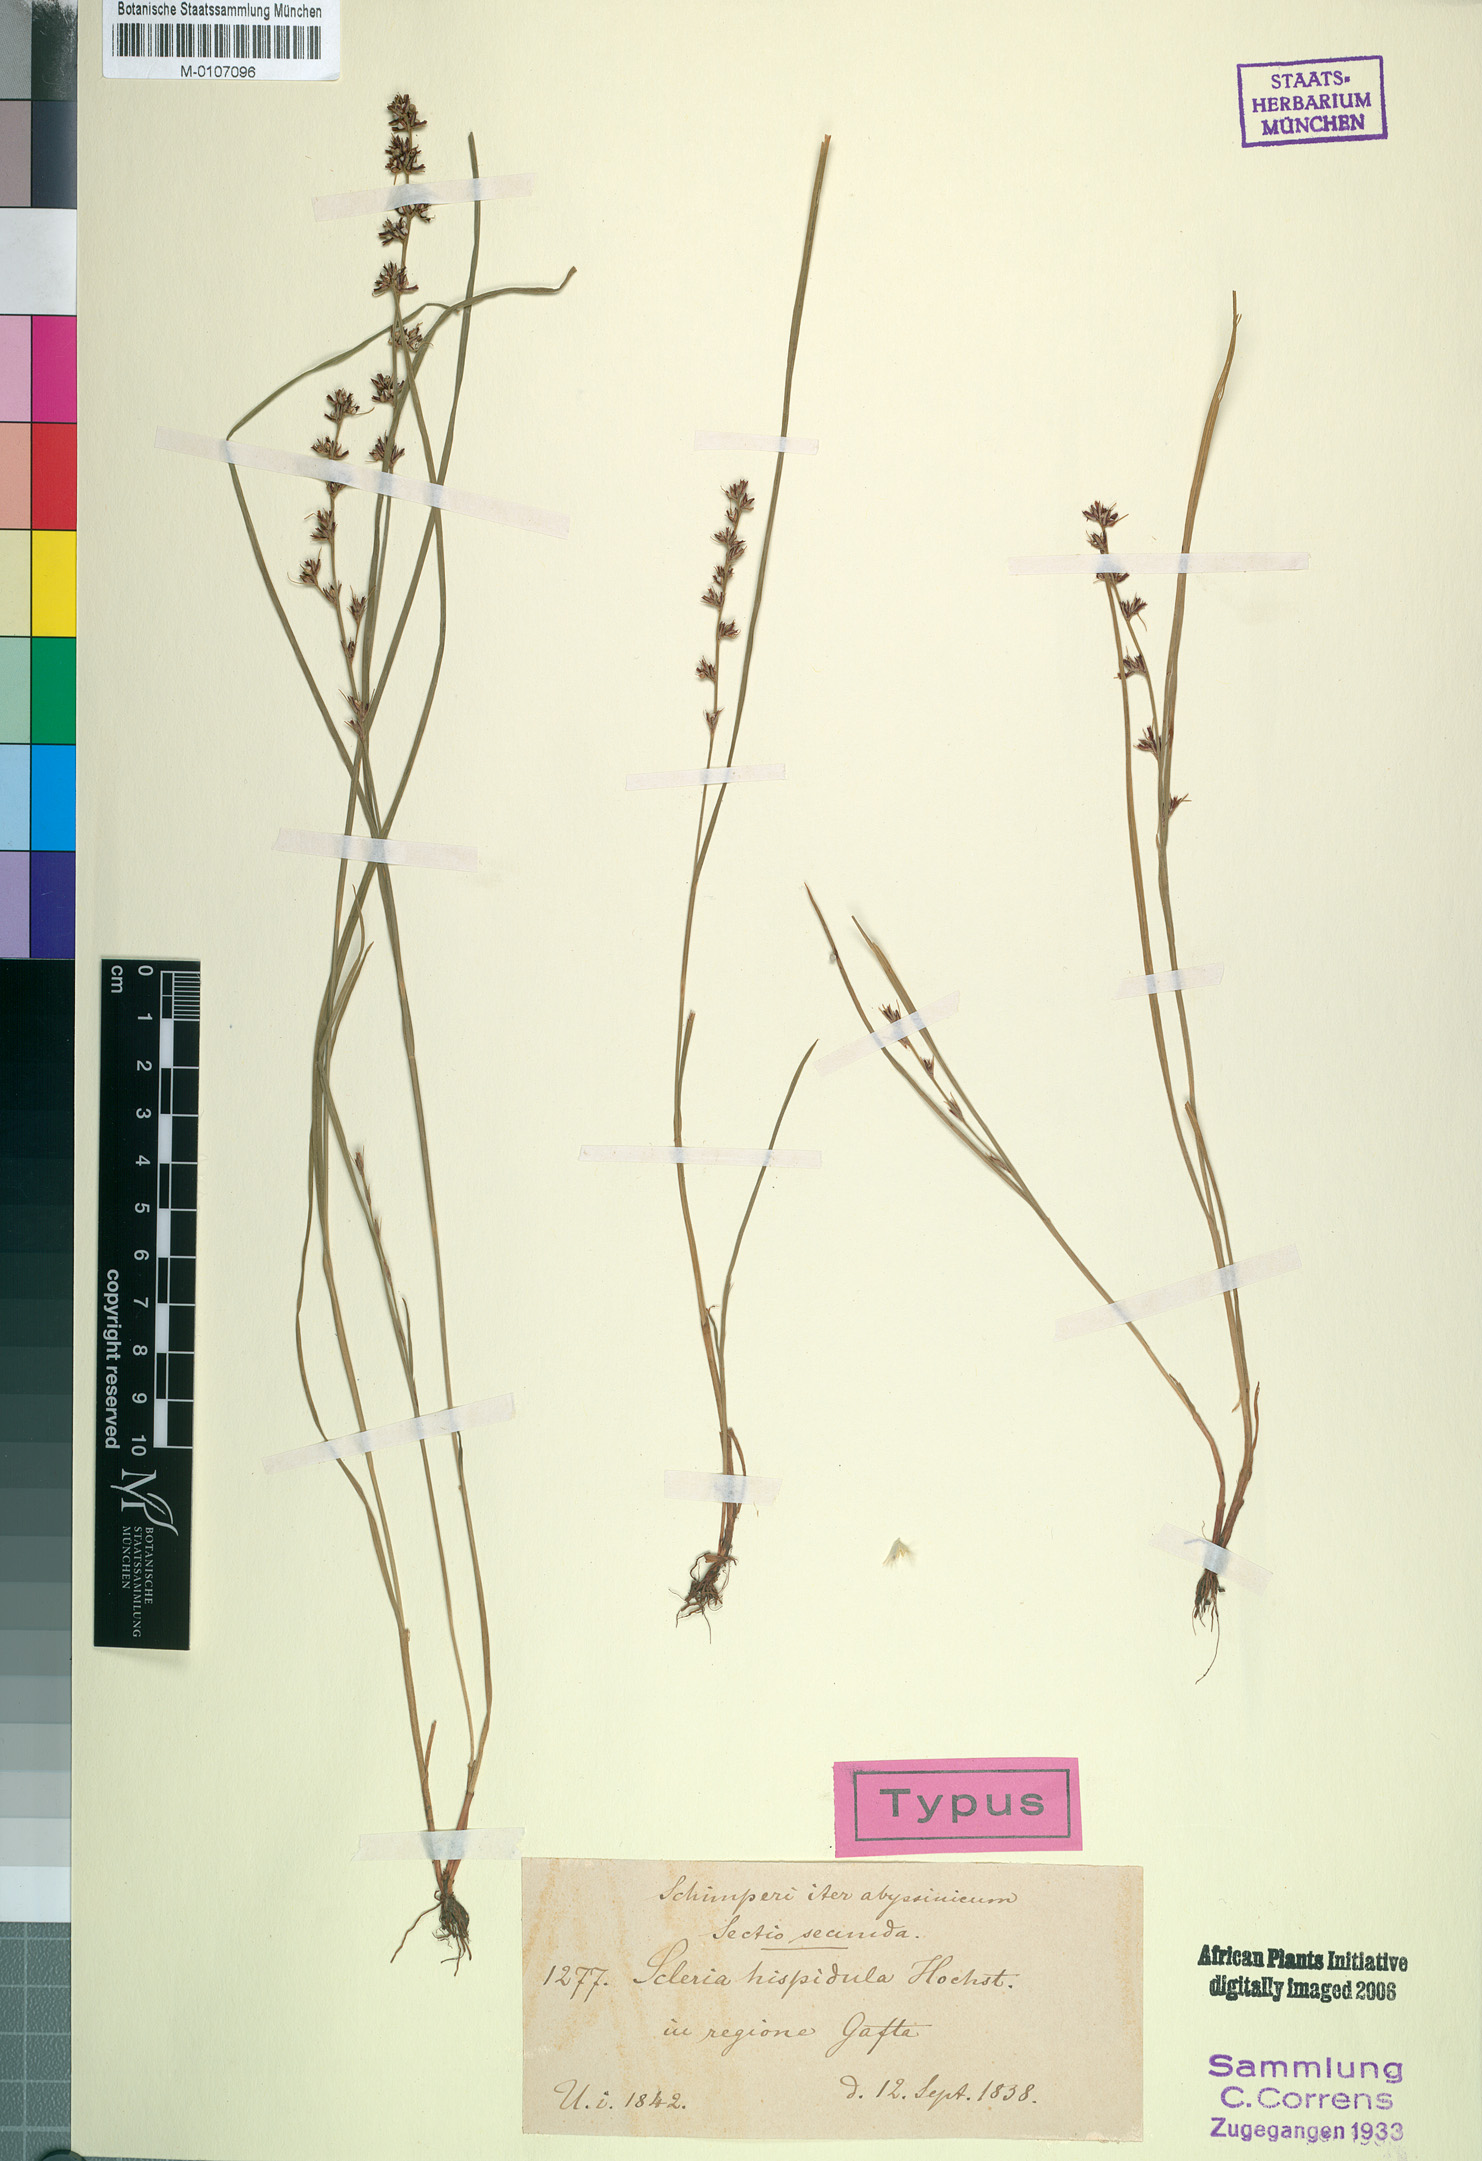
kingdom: Plantae
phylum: Tracheophyta
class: Liliopsida
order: Poales
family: Cyperaceae
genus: Scleria
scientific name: Scleria hispidula
